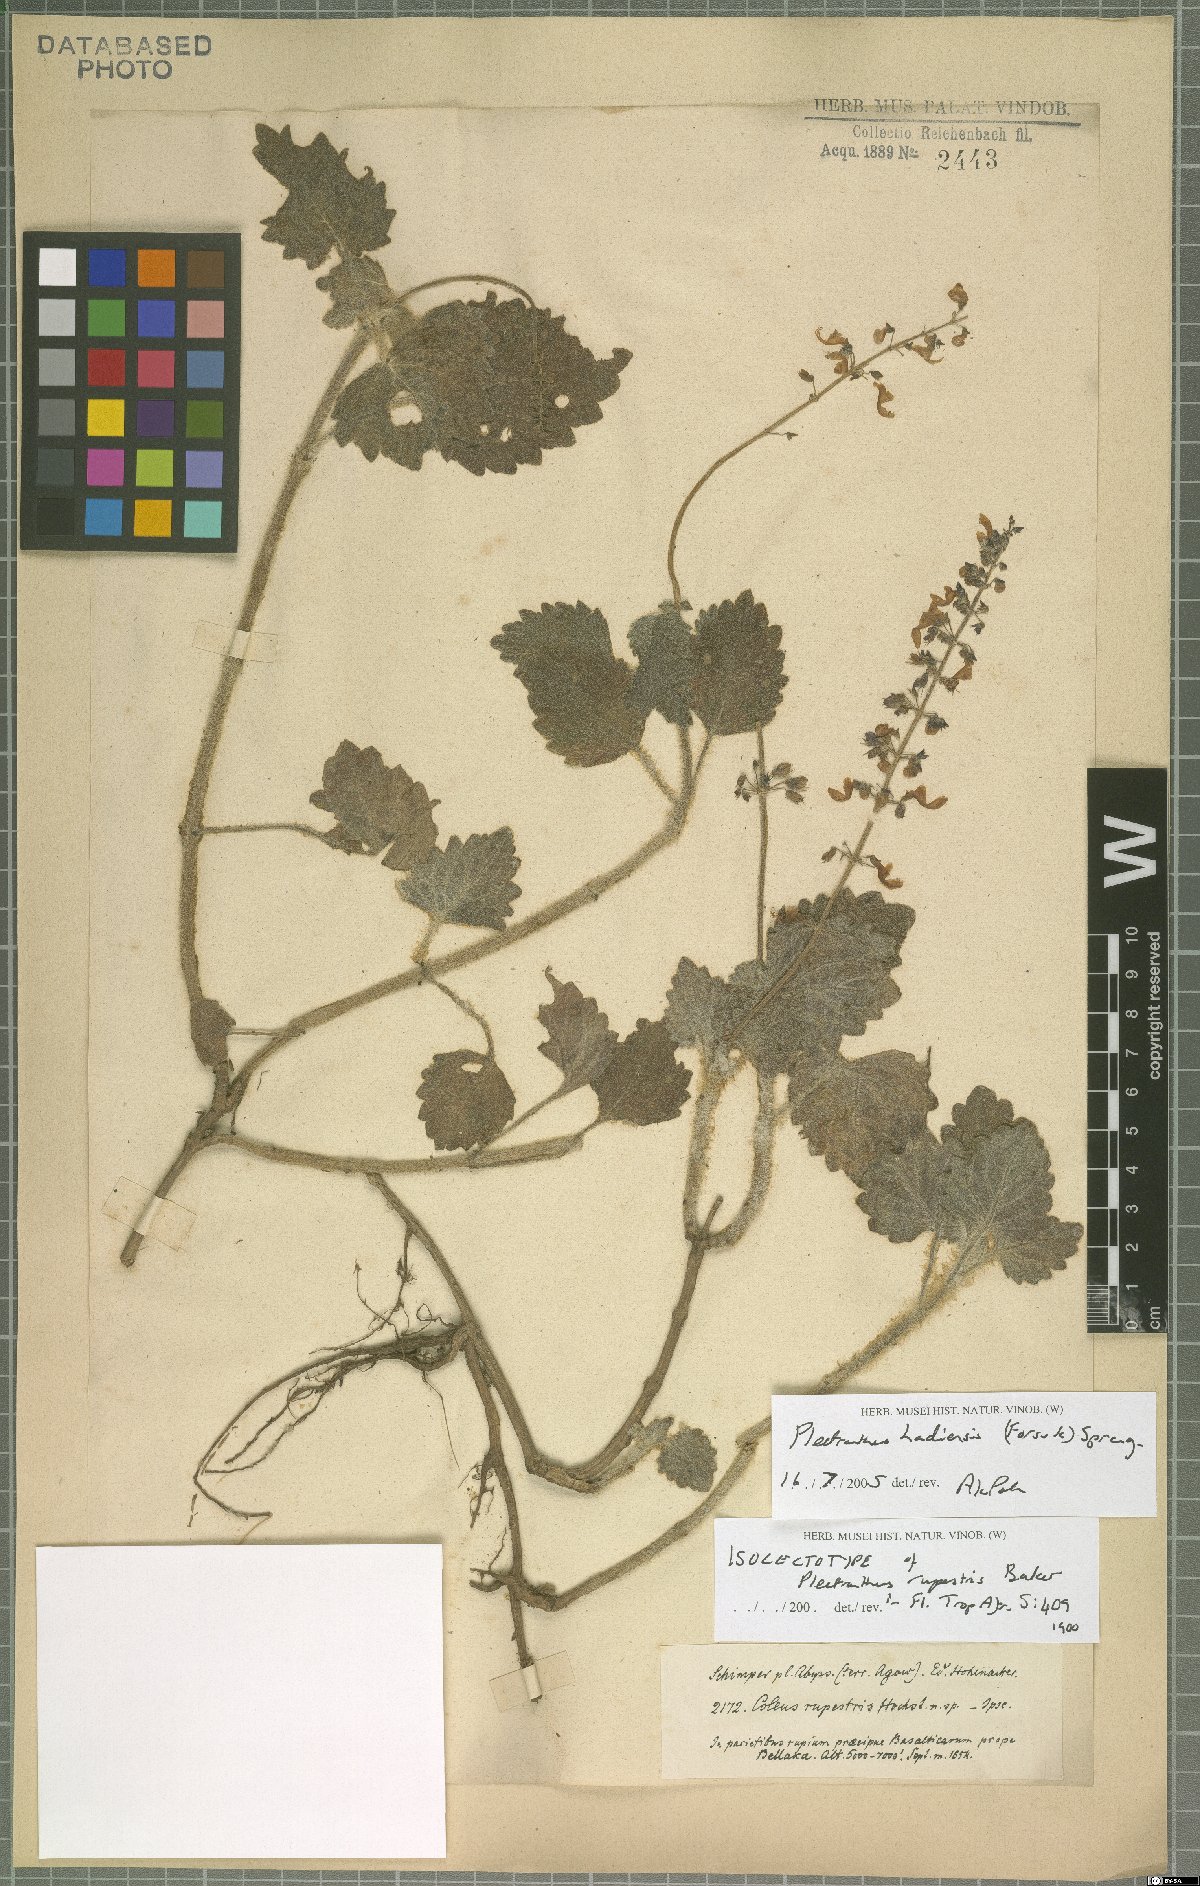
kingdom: Plantae
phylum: Tracheophyta
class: Magnoliopsida
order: Lamiales
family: Lamiaceae
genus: Coleus
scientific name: Coleus hadiensis
